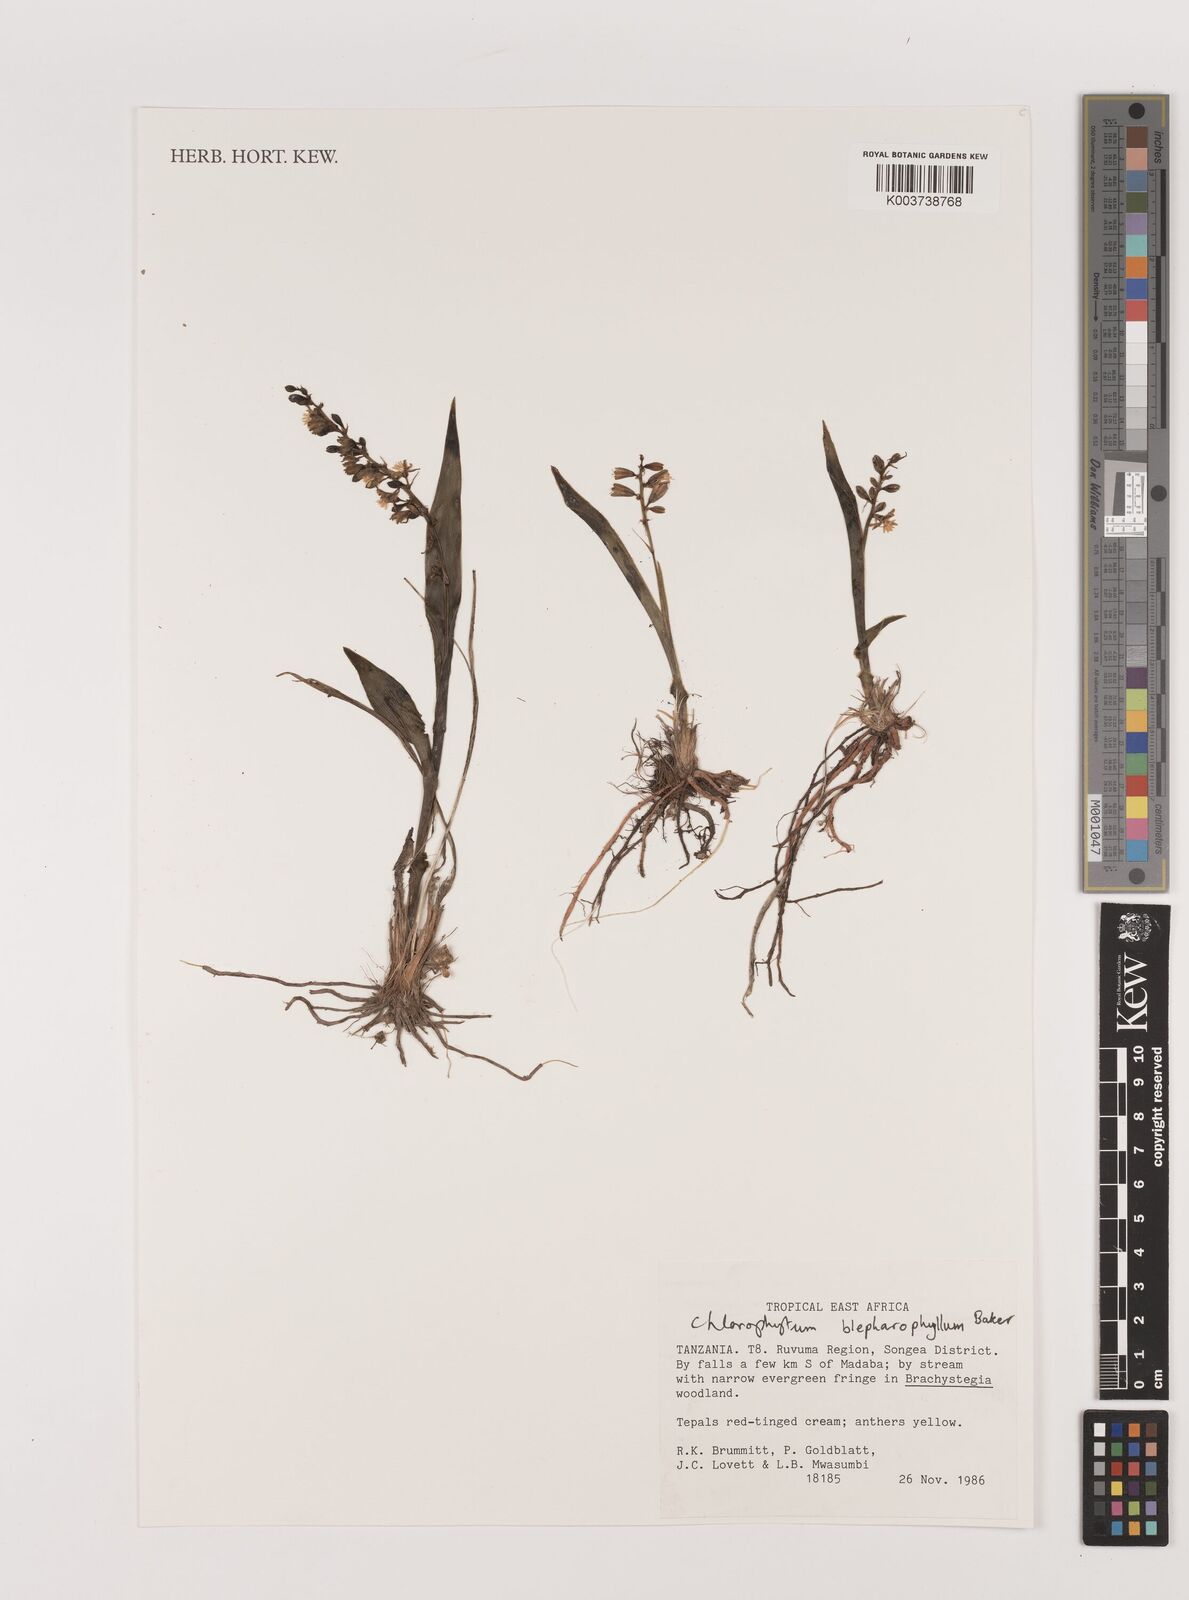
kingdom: Plantae
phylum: Tracheophyta
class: Liliopsida
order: Asparagales
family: Asparagaceae
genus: Chlorophytum
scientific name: Chlorophytum blepharophyllum
